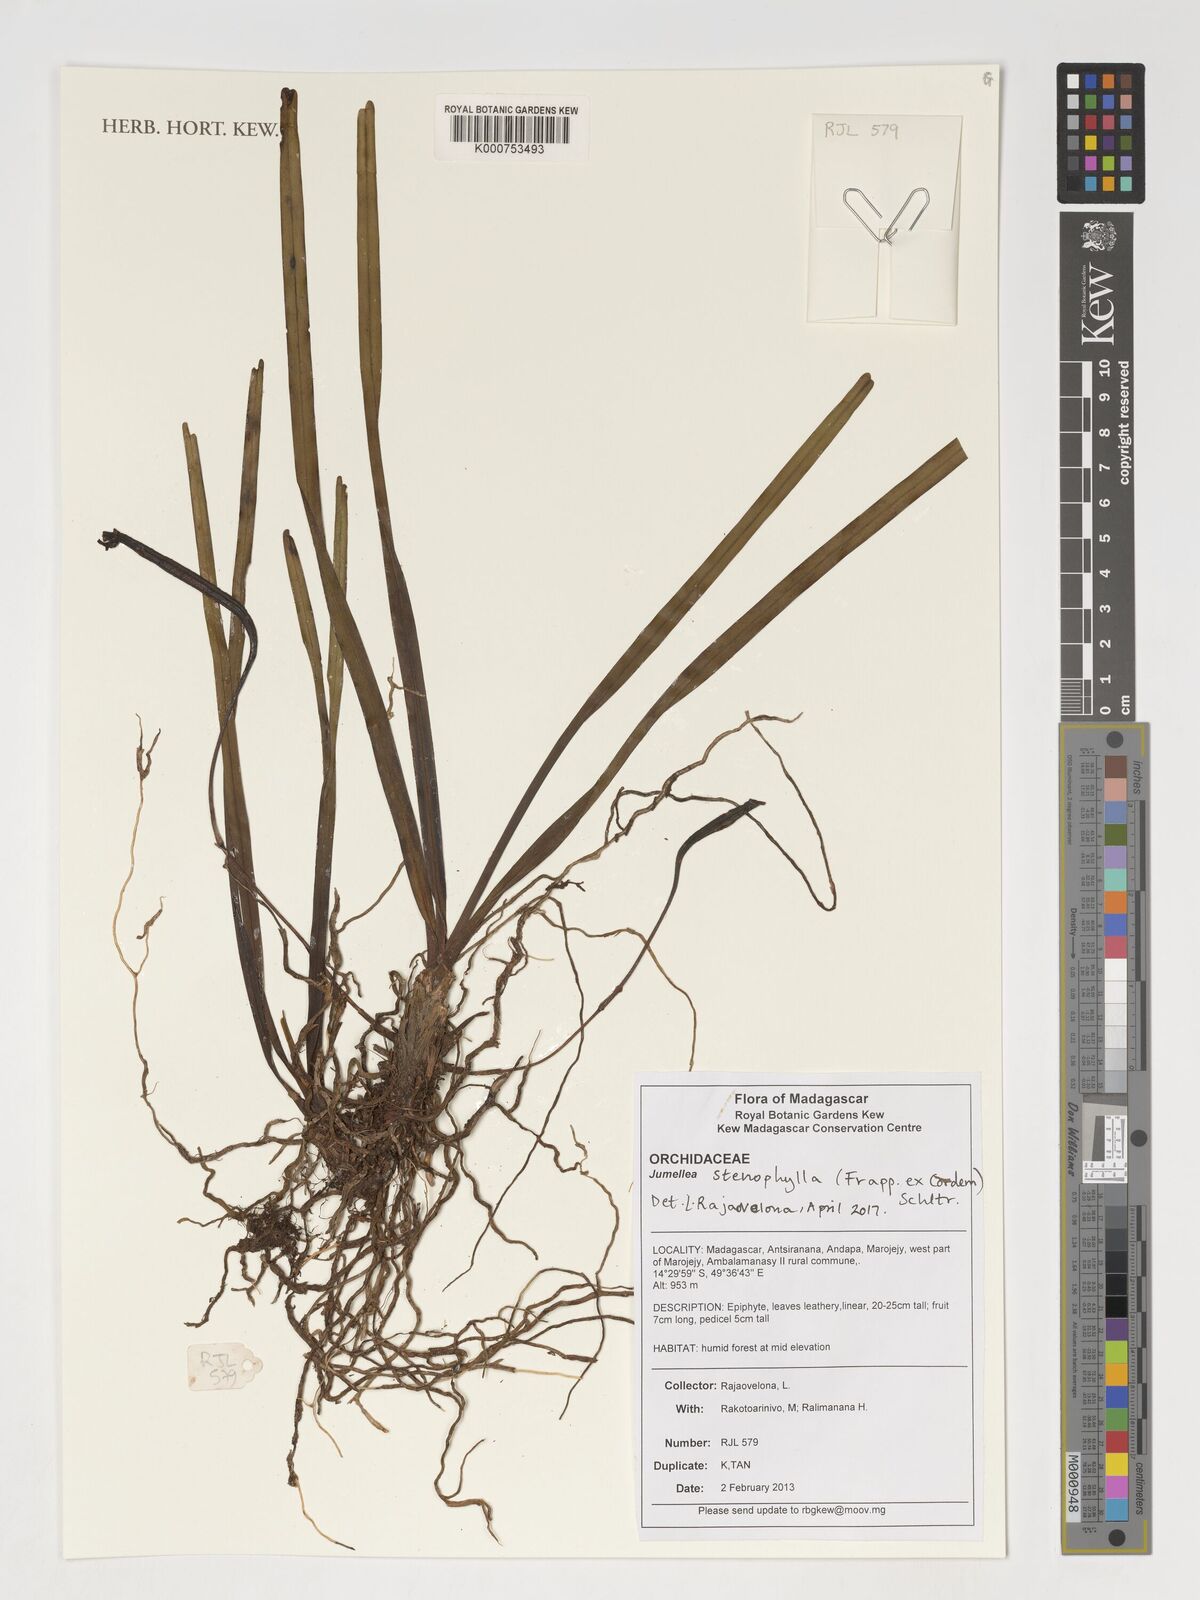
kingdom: Plantae
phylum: Tracheophyta
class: Liliopsida
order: Asparagales
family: Orchidaceae
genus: Jumellea
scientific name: Jumellea stenophylla
